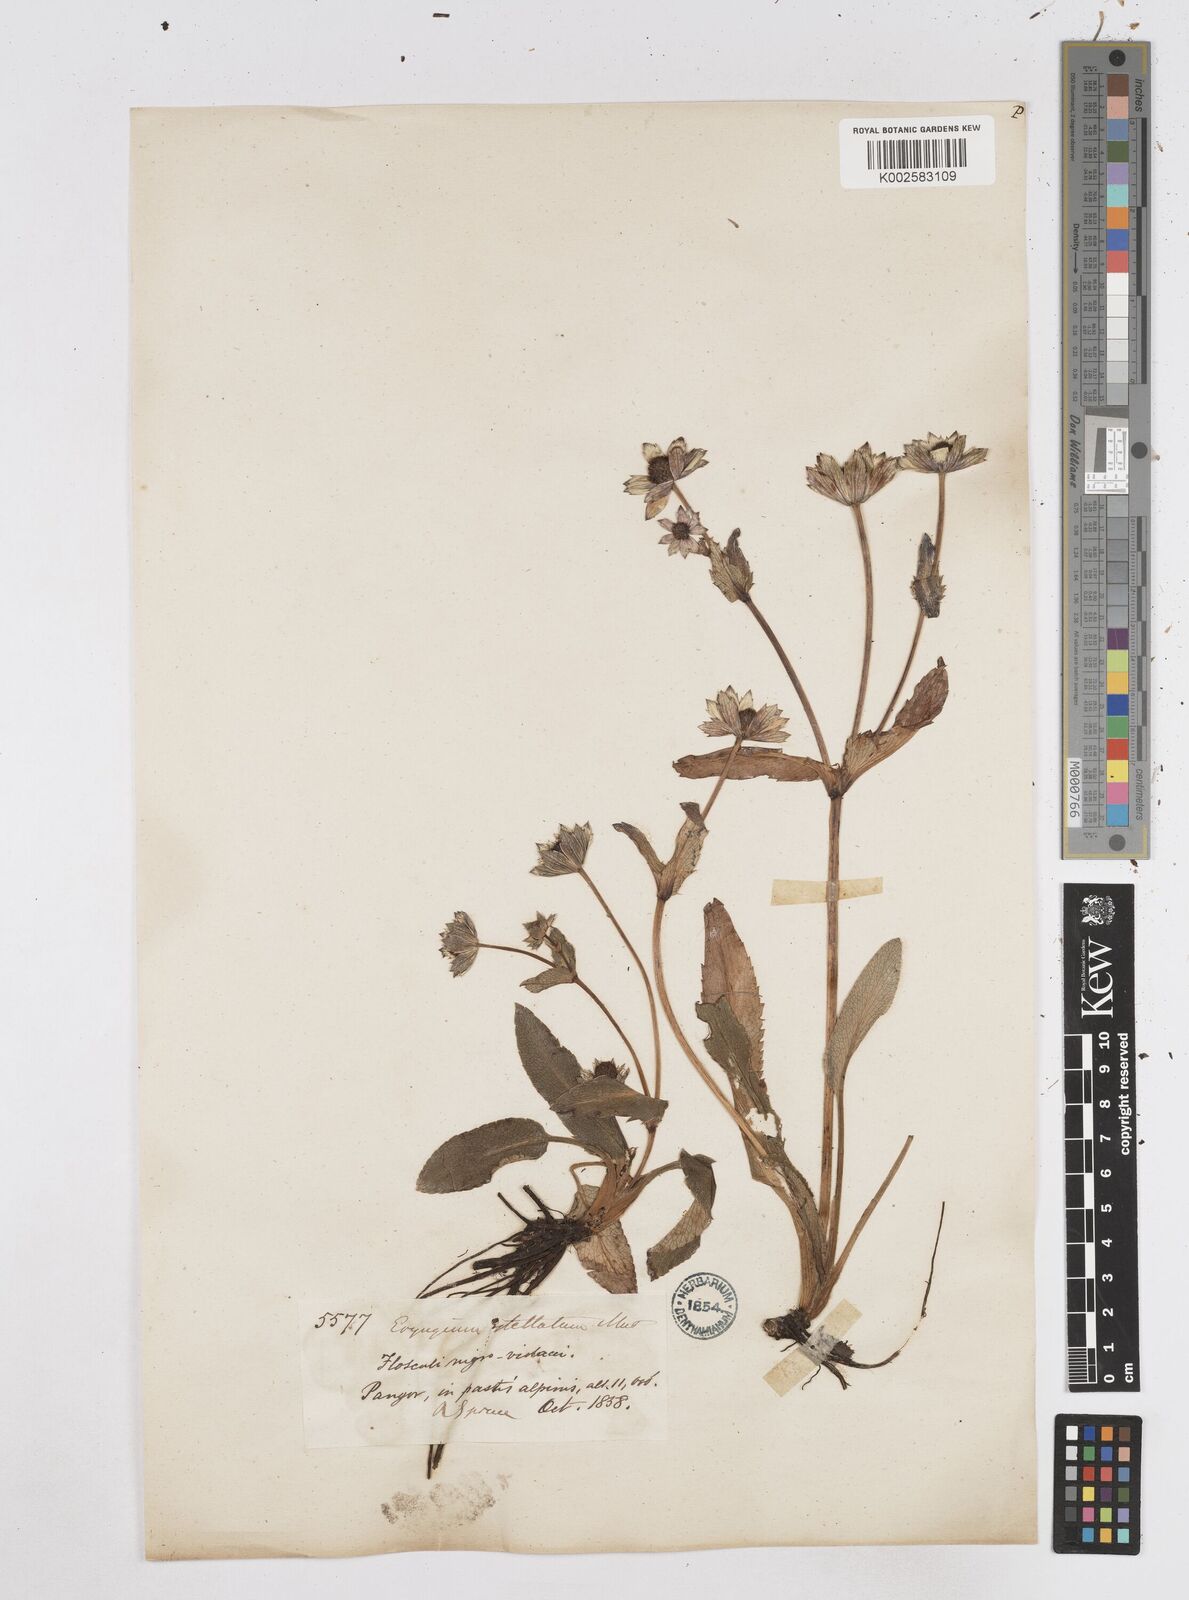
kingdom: Plantae
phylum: Tracheophyta
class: Magnoliopsida
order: Apiales
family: Apiaceae
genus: Eryngium
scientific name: Eryngium humile
